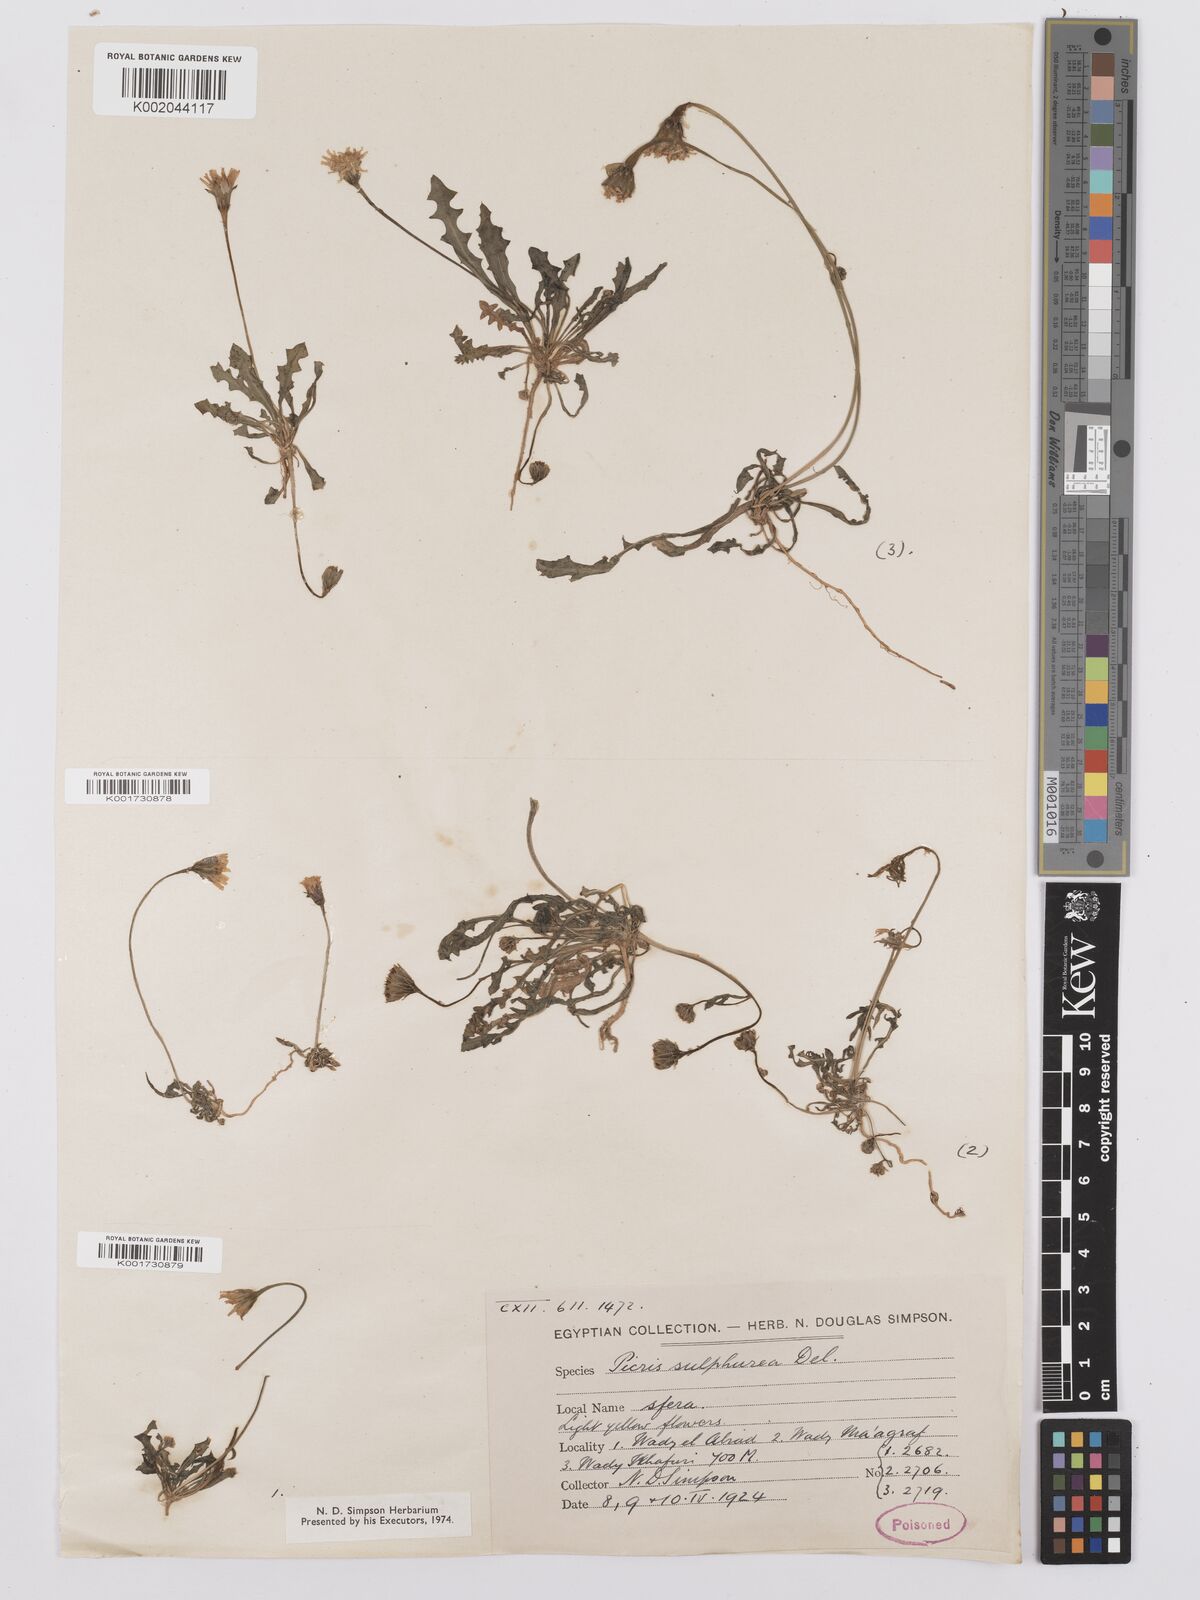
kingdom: Plantae
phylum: Tracheophyta
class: Magnoliopsida
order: Asterales
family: Asteraceae
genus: Picris
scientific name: Picris sulphurea
